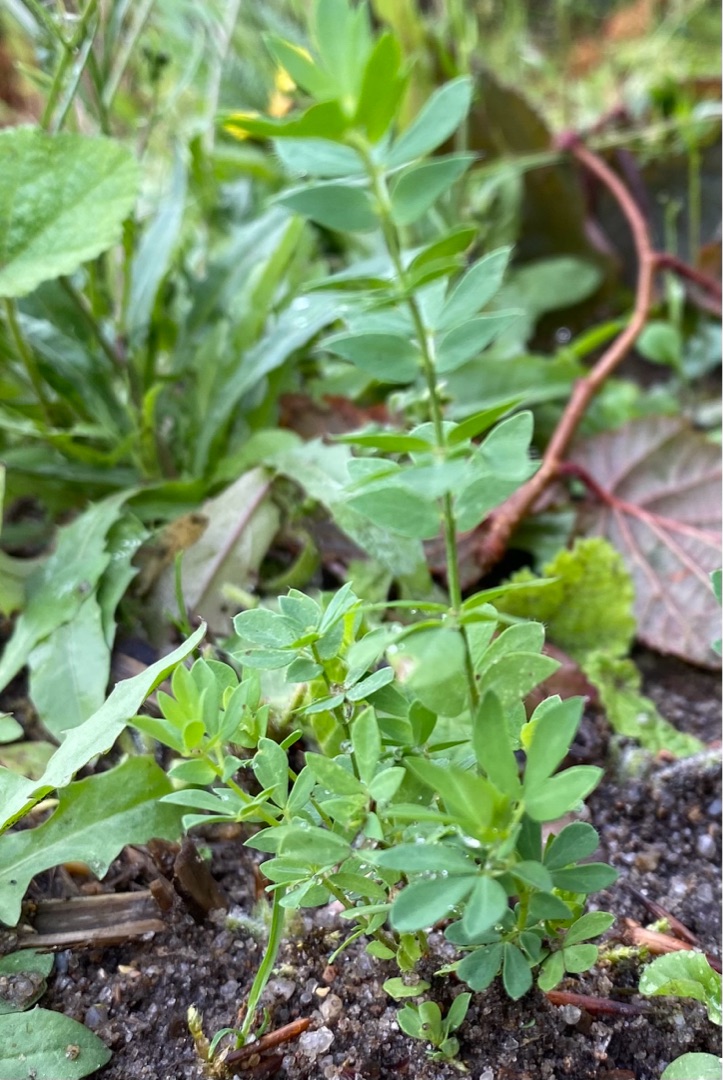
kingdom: Plantae
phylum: Tracheophyta
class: Magnoliopsida
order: Fabales
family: Fabaceae
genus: Lotus
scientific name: Lotus corniculatus
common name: Almindelig kællingetand
